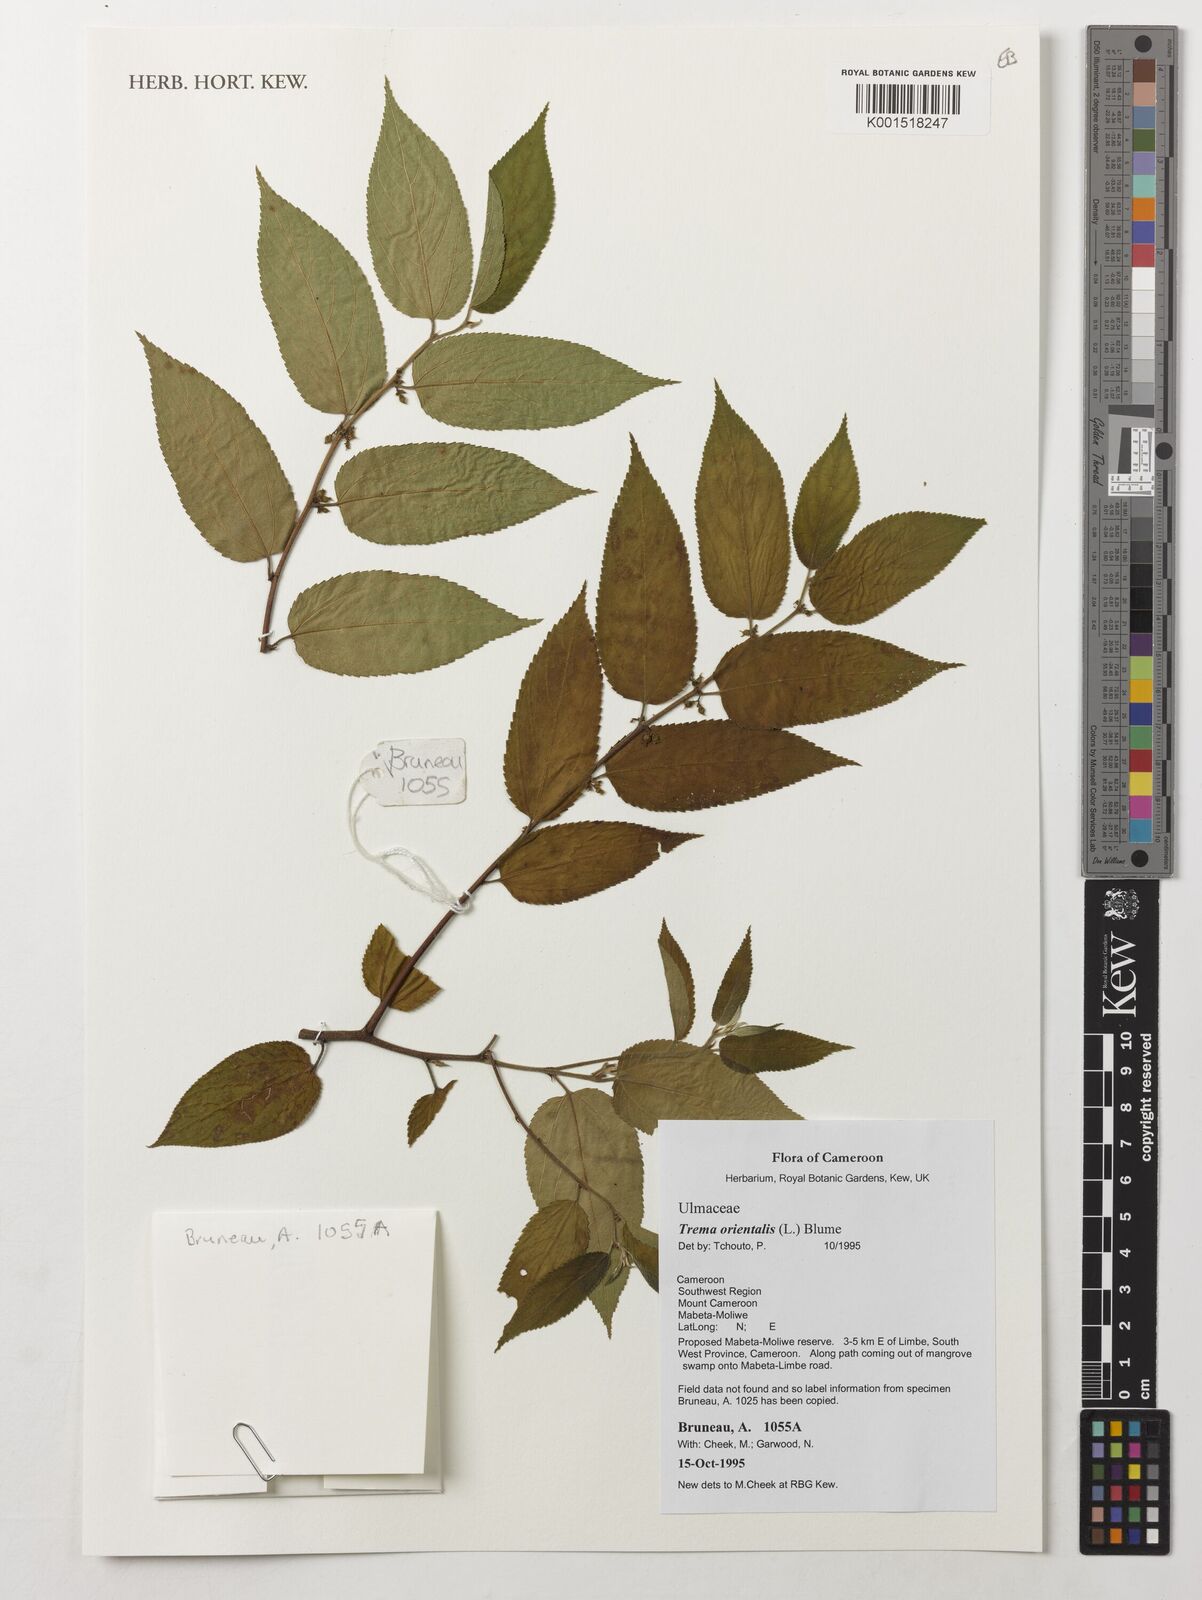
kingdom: Plantae
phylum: Tracheophyta
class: Magnoliopsida
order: Rosales
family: Cannabaceae
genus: Trema
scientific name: Trema orientale
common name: Indian charcoal tree
